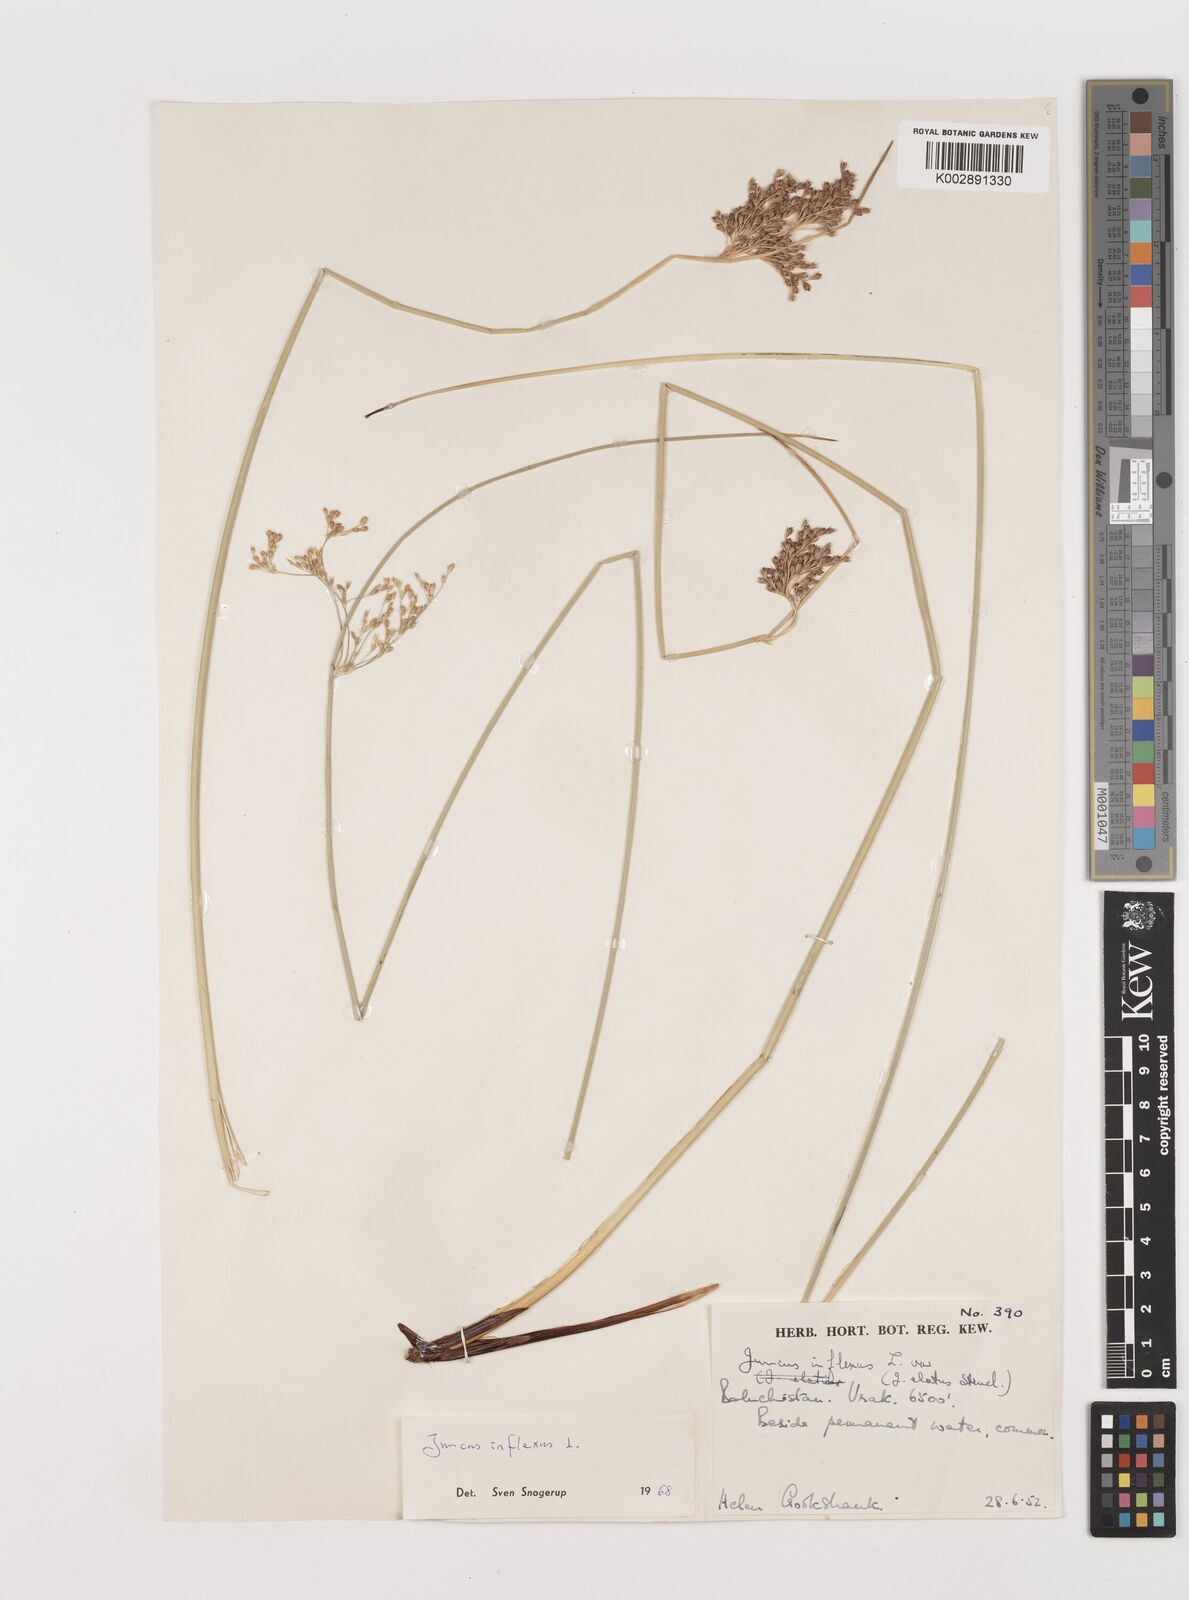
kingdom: Plantae
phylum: Tracheophyta
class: Liliopsida
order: Poales
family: Juncaceae
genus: Juncus
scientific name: Juncus inflexus
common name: Hard rush
